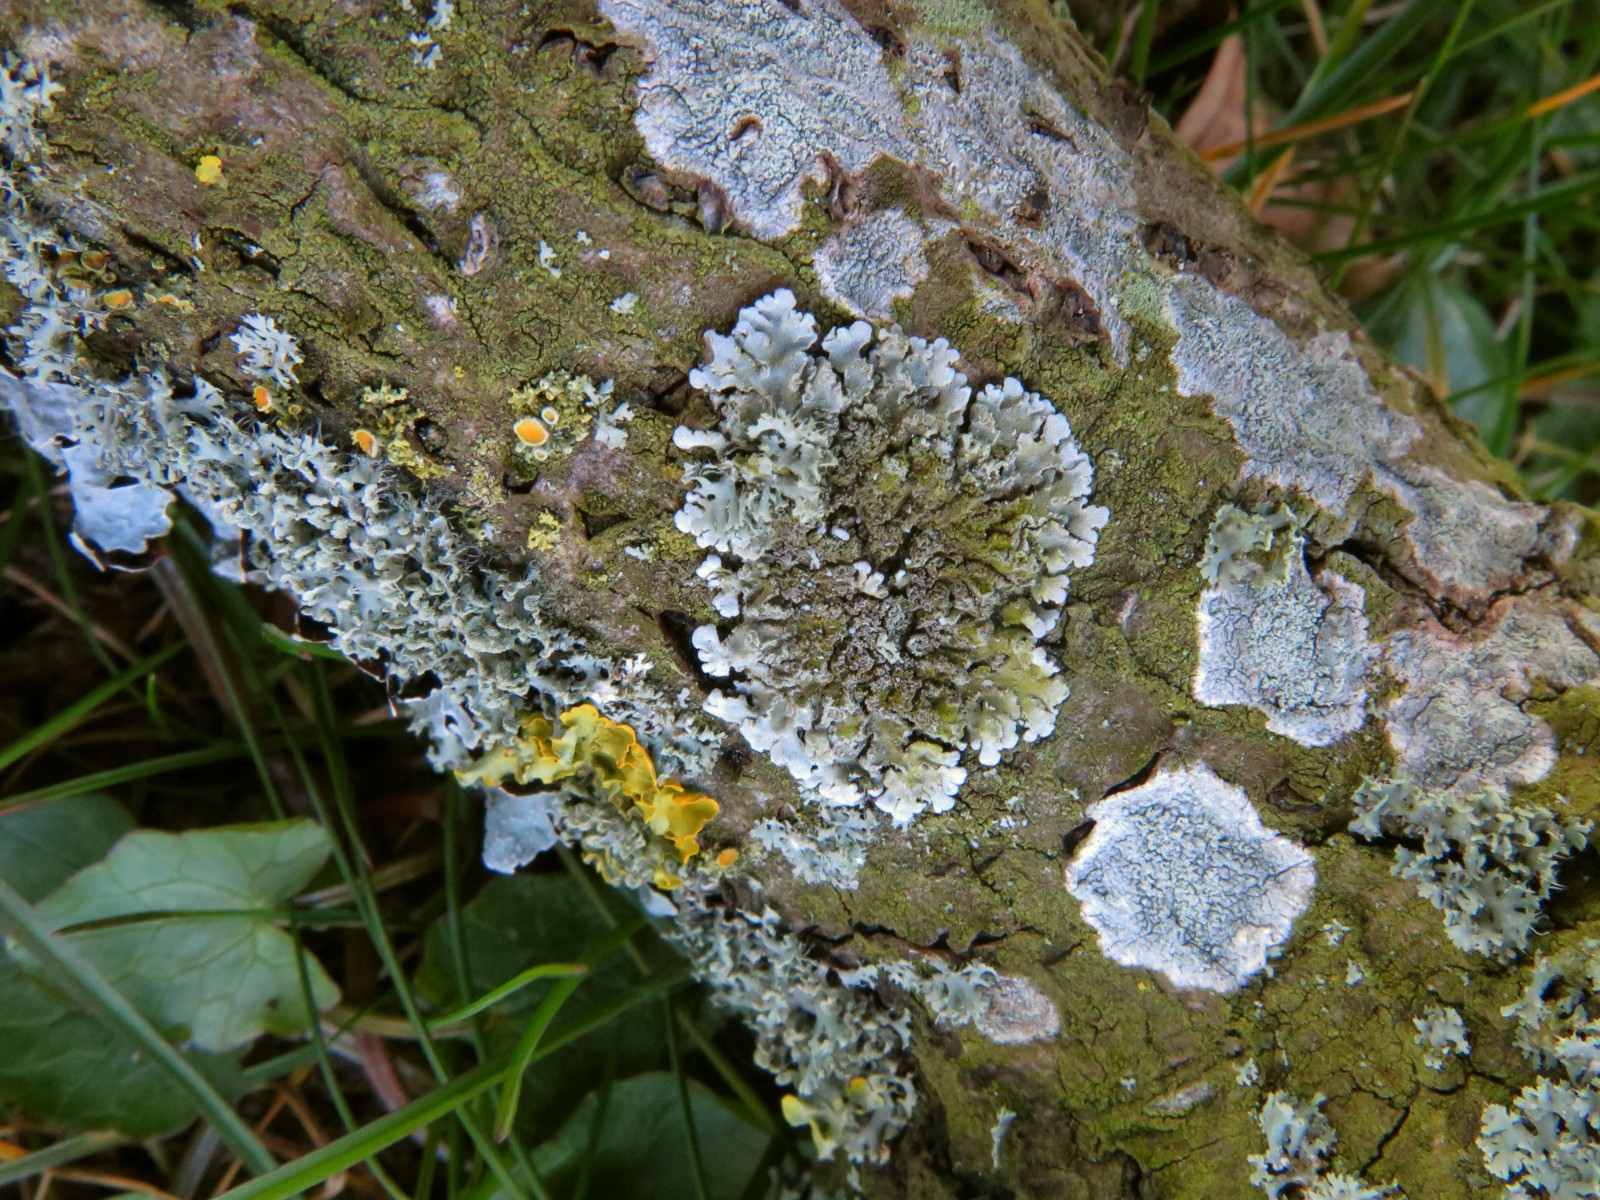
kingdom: Fungi
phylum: Ascomycota
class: Lecanoromycetes
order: Caliciales
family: Physciaceae
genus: Poeltonia
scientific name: Poeltonia grisea
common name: hvidgrå dugrosetlav
